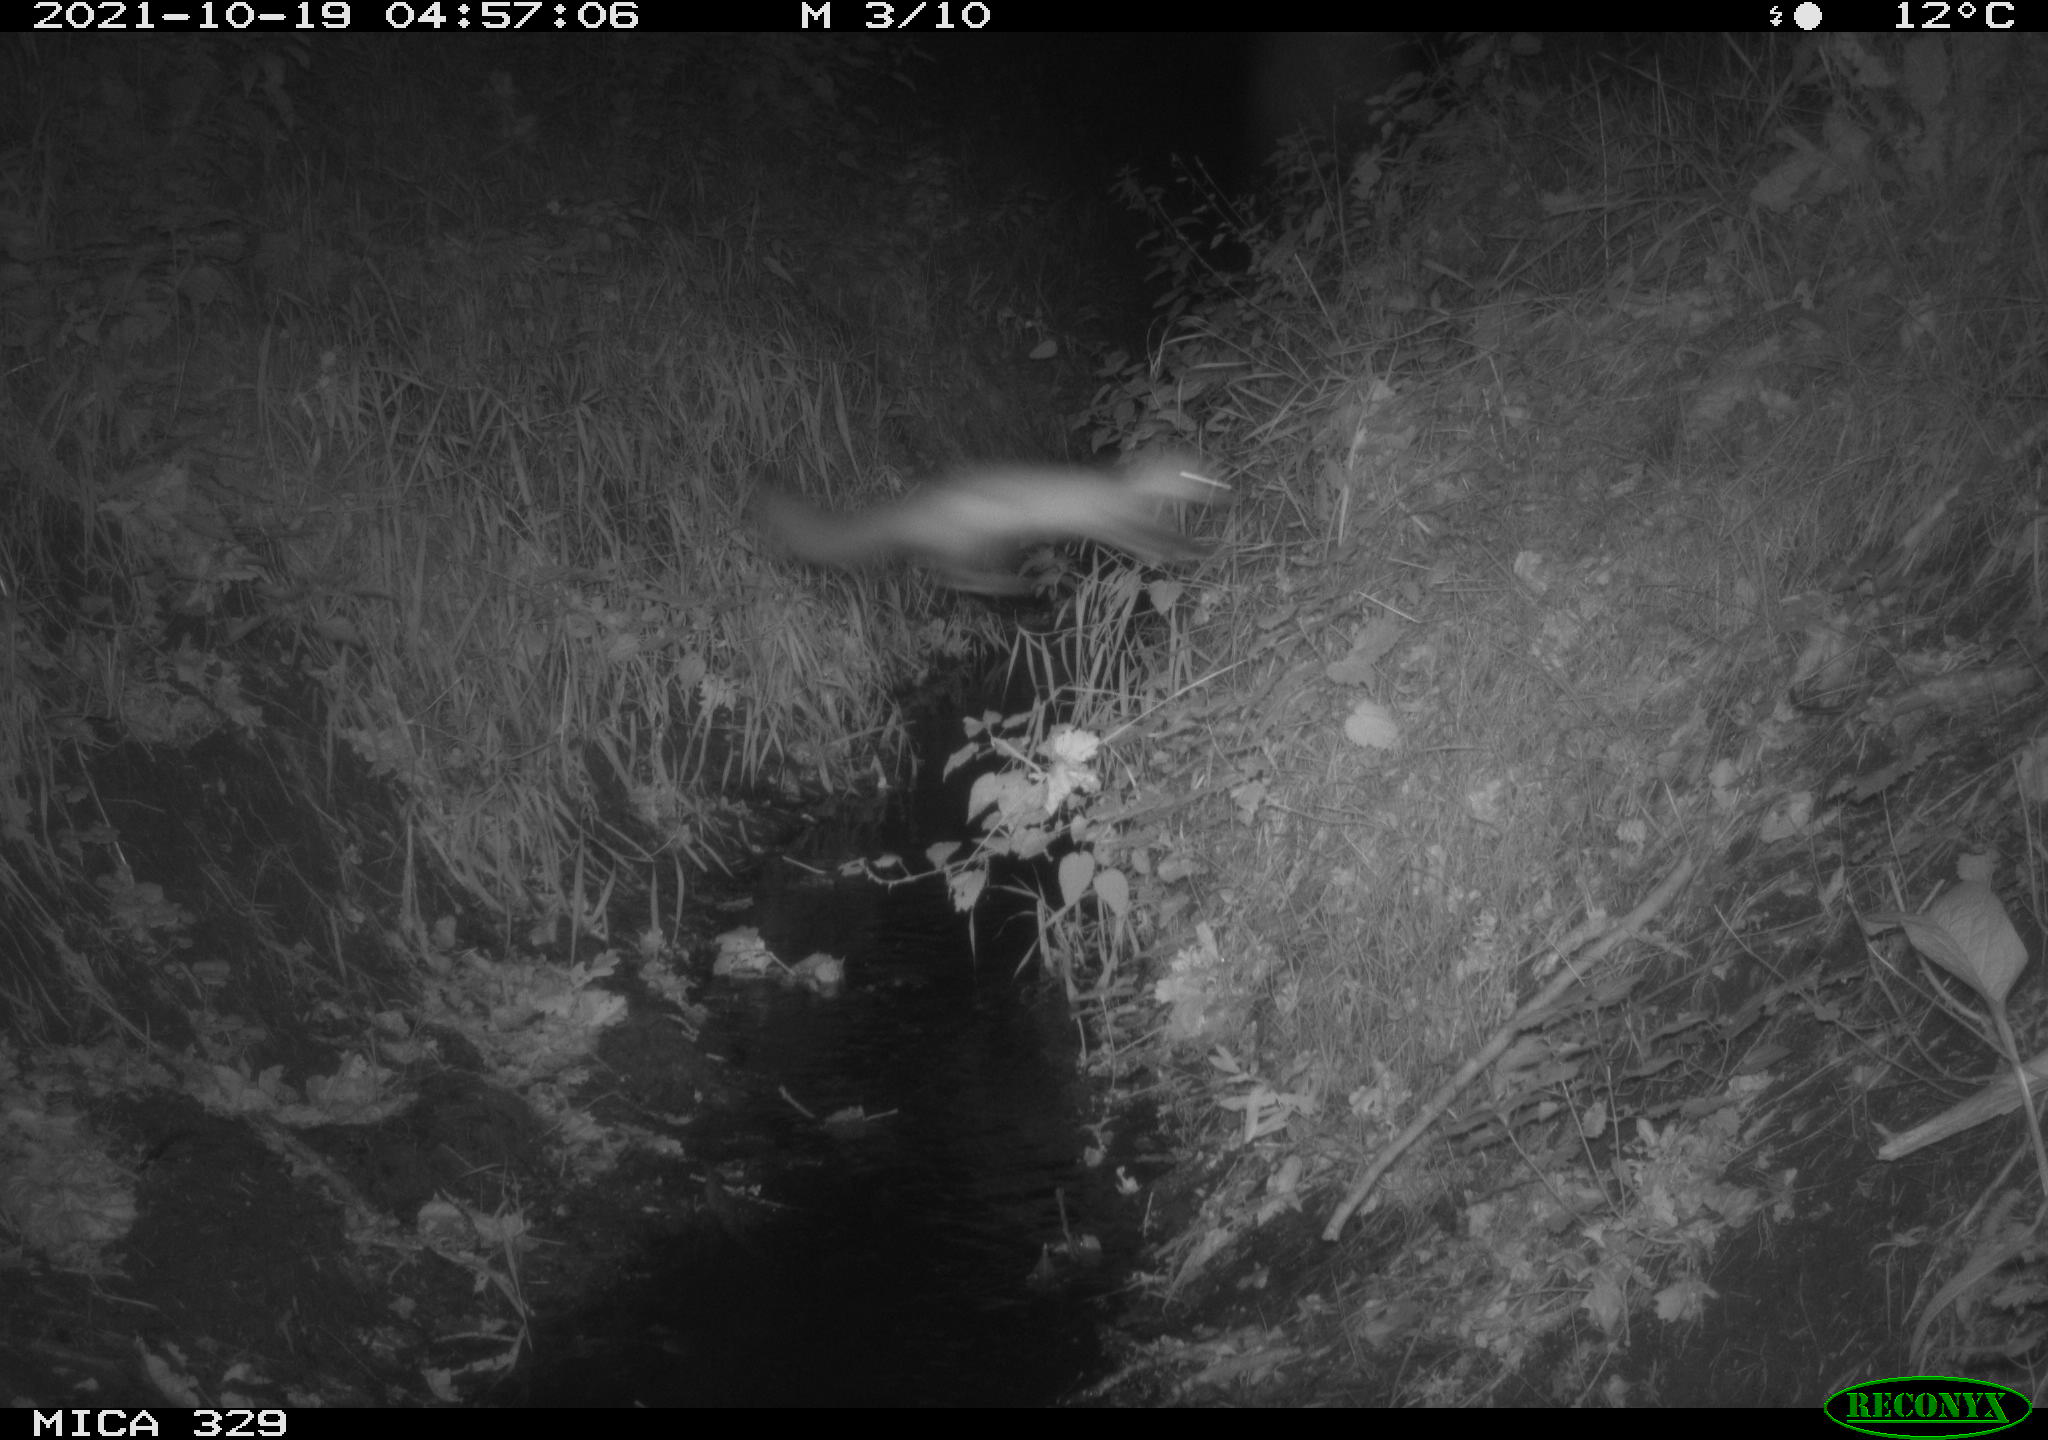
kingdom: Animalia
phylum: Chordata
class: Mammalia
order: Carnivora
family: Mustelidae
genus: Martes
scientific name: Martes foina
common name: Beech marten
